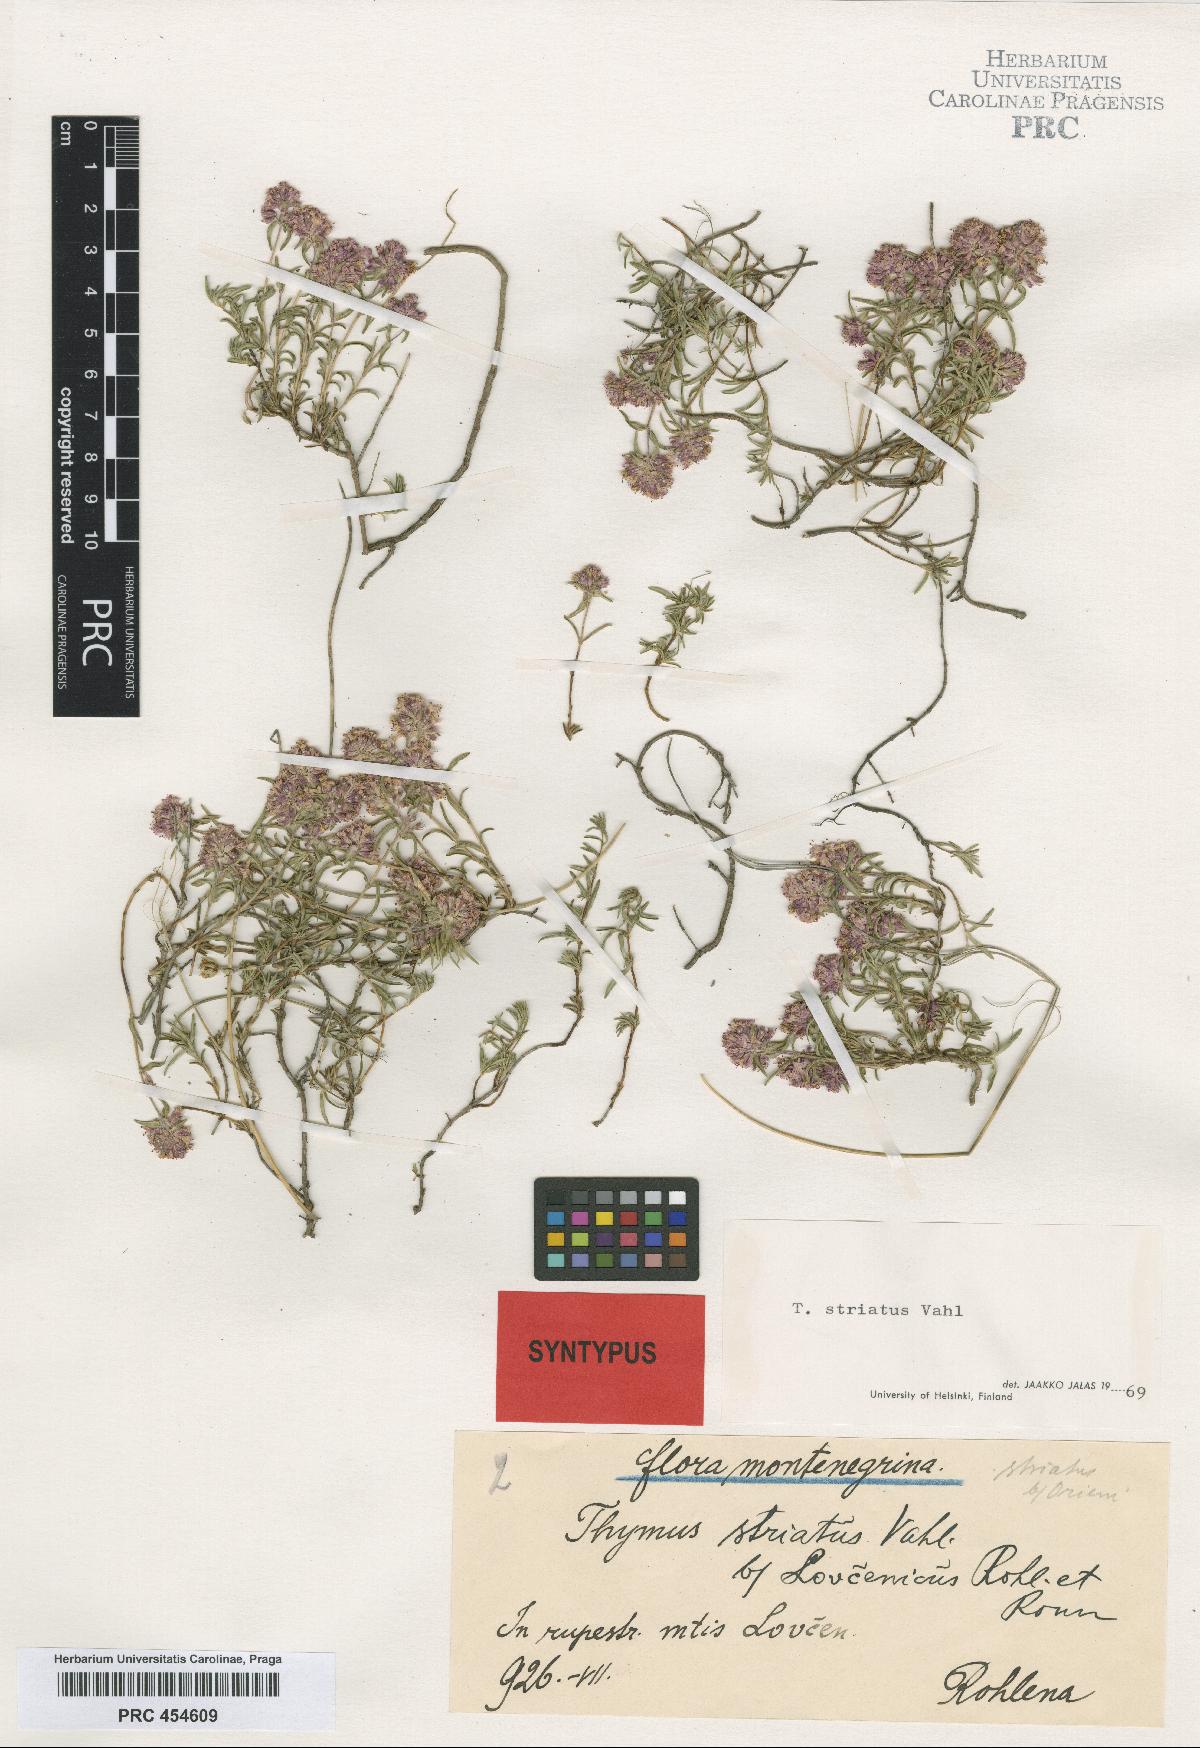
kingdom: Plantae
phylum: Tracheophyta
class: Magnoliopsida
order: Lamiales
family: Lamiaceae
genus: Thymus
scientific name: Thymus striatus
